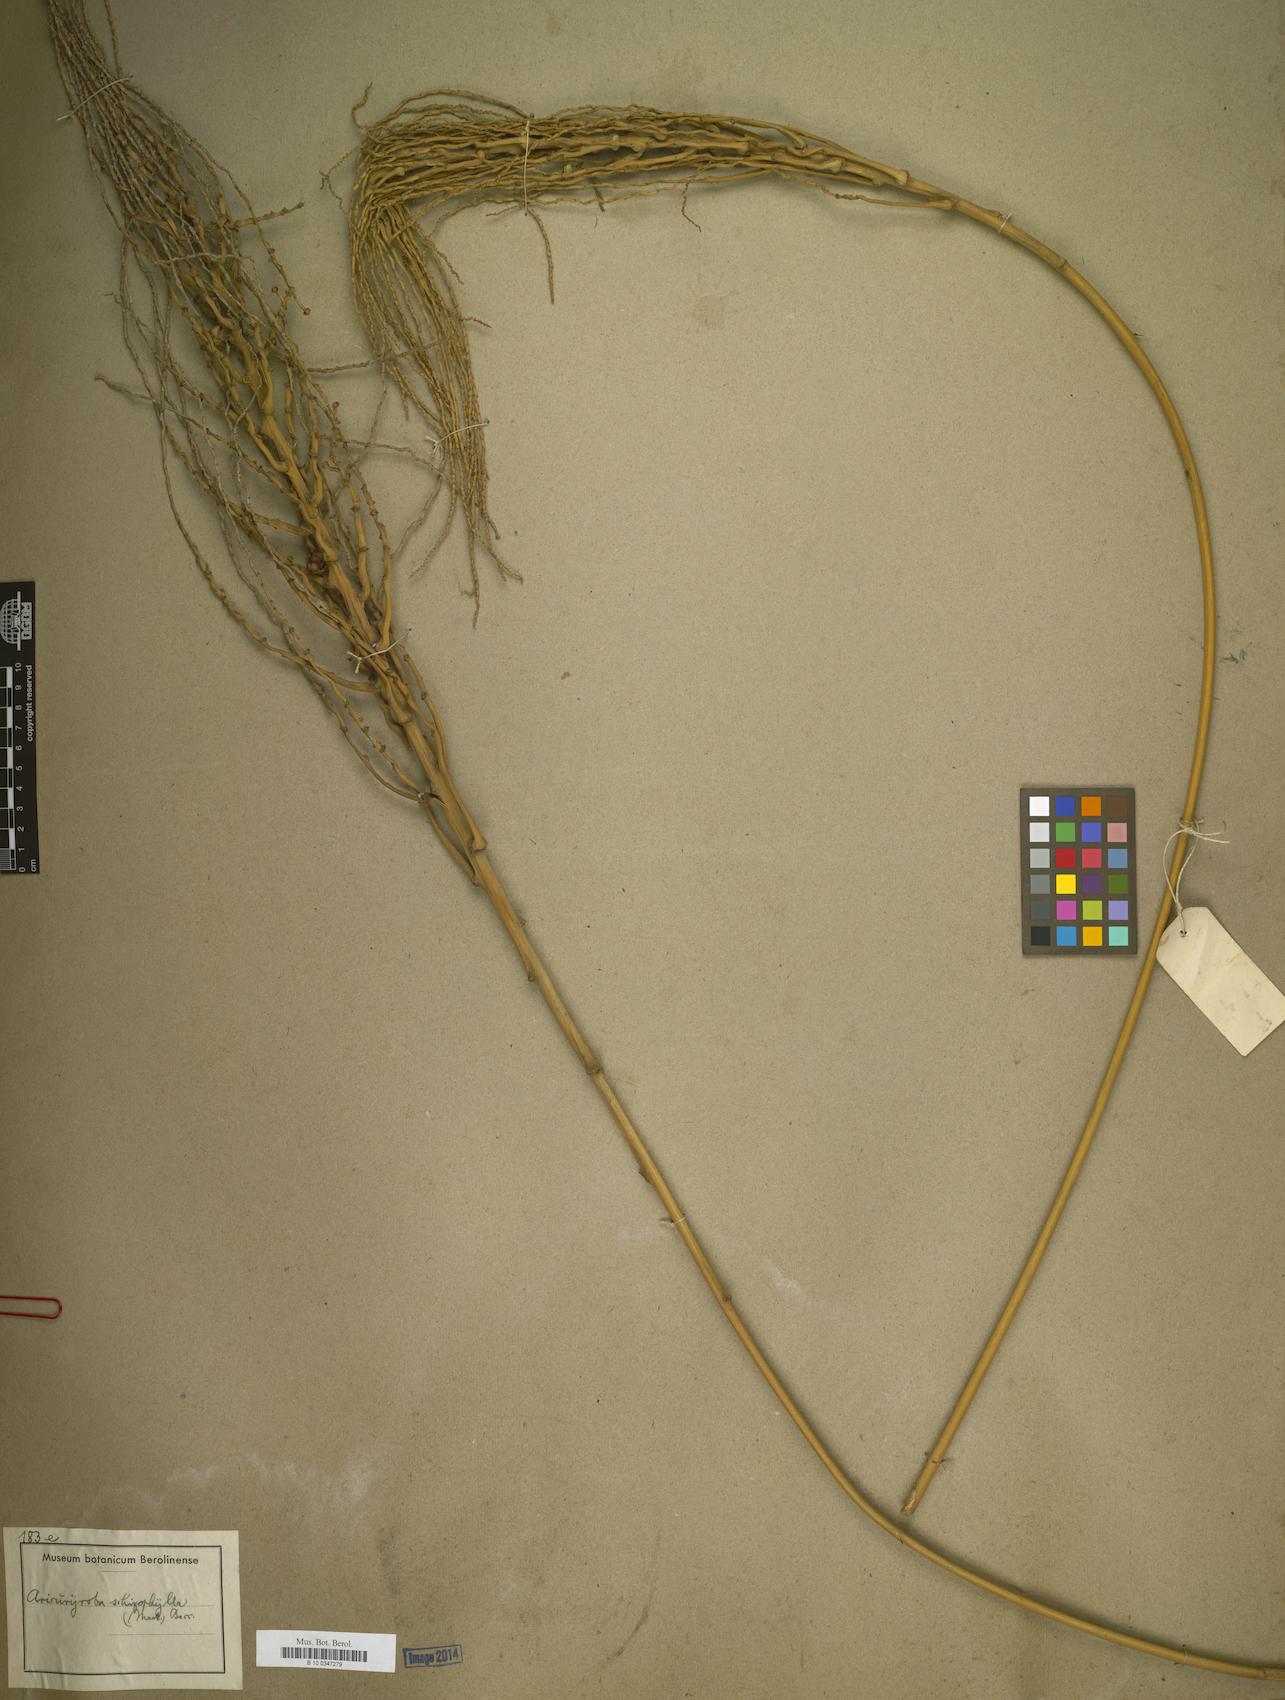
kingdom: Plantae
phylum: Tracheophyta
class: Liliopsida
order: Arecales
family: Arecaceae
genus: Syagrus
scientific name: Syagrus schizophylla
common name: Arikury palm
